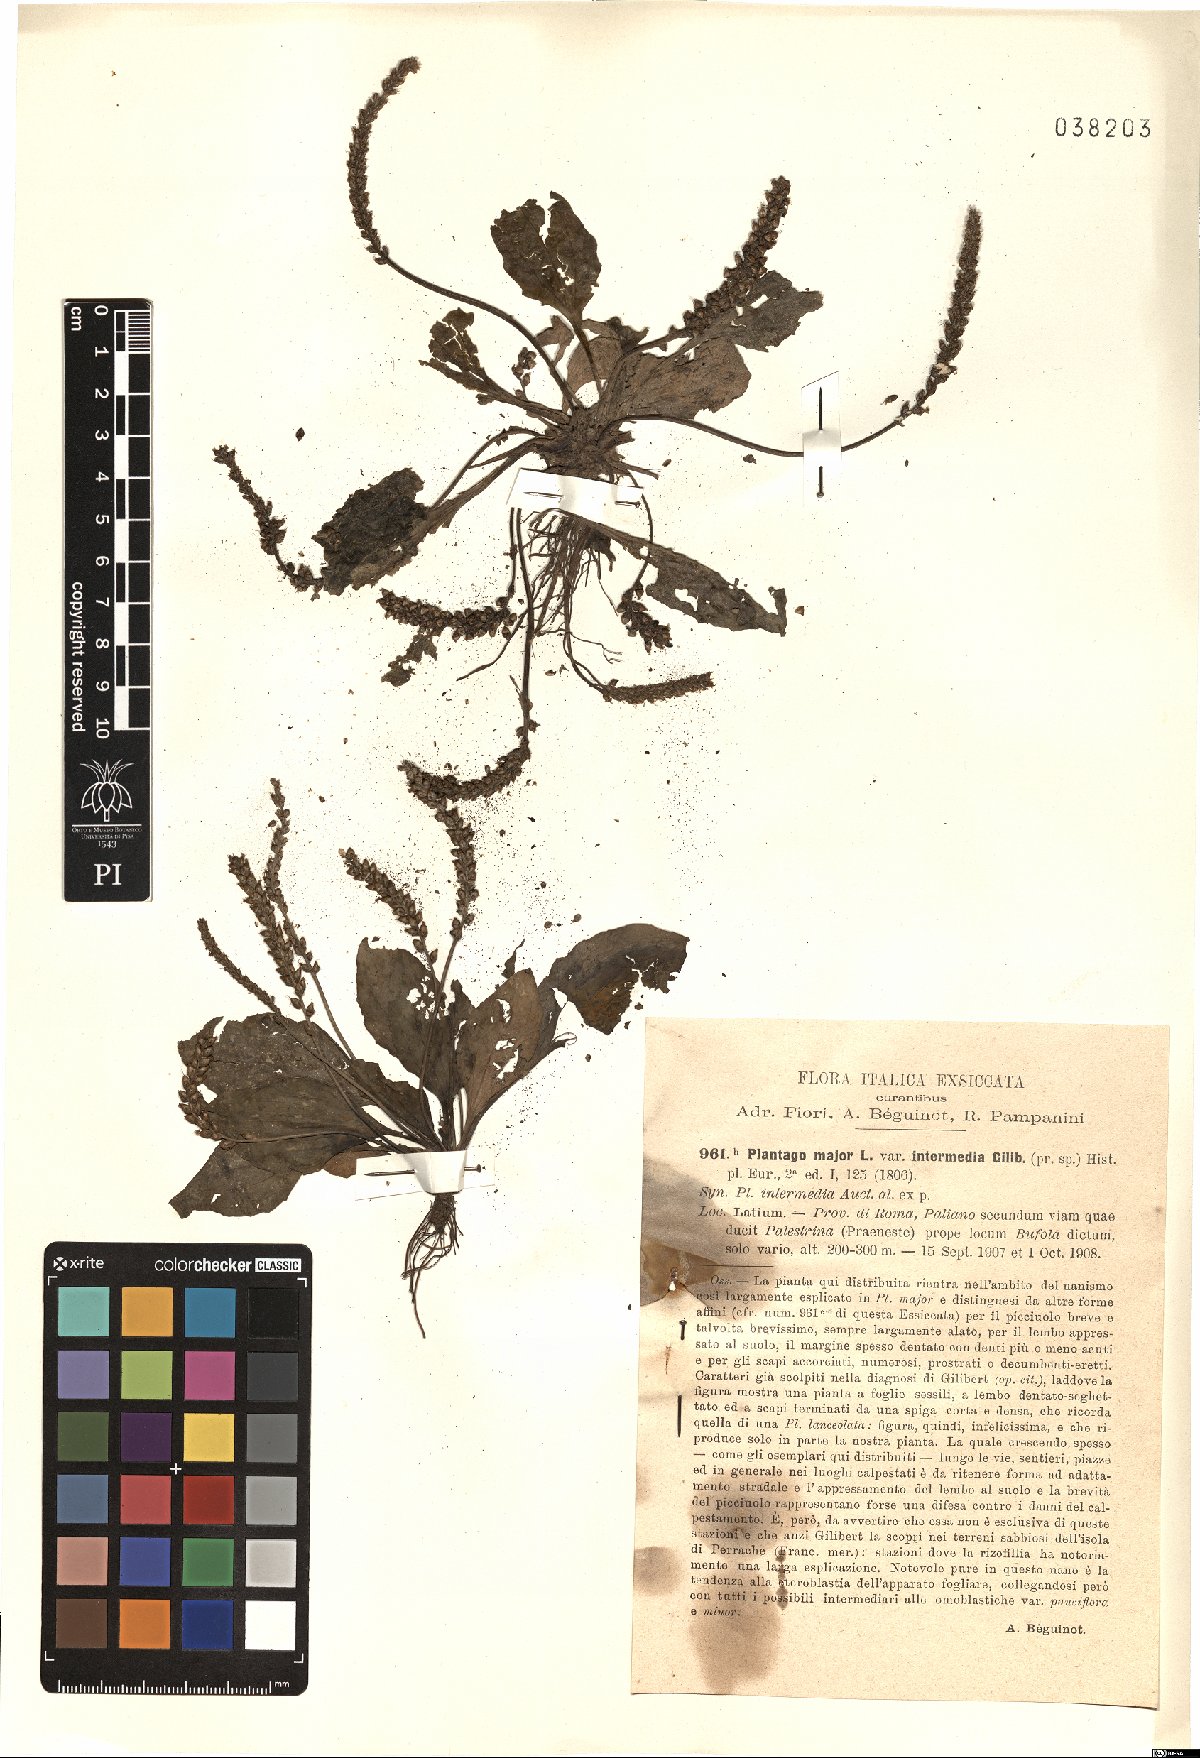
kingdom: Plantae
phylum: Tracheophyta
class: Magnoliopsida
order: Lamiales
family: Plantaginaceae
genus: Plantago
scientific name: Plantago uliginosa
